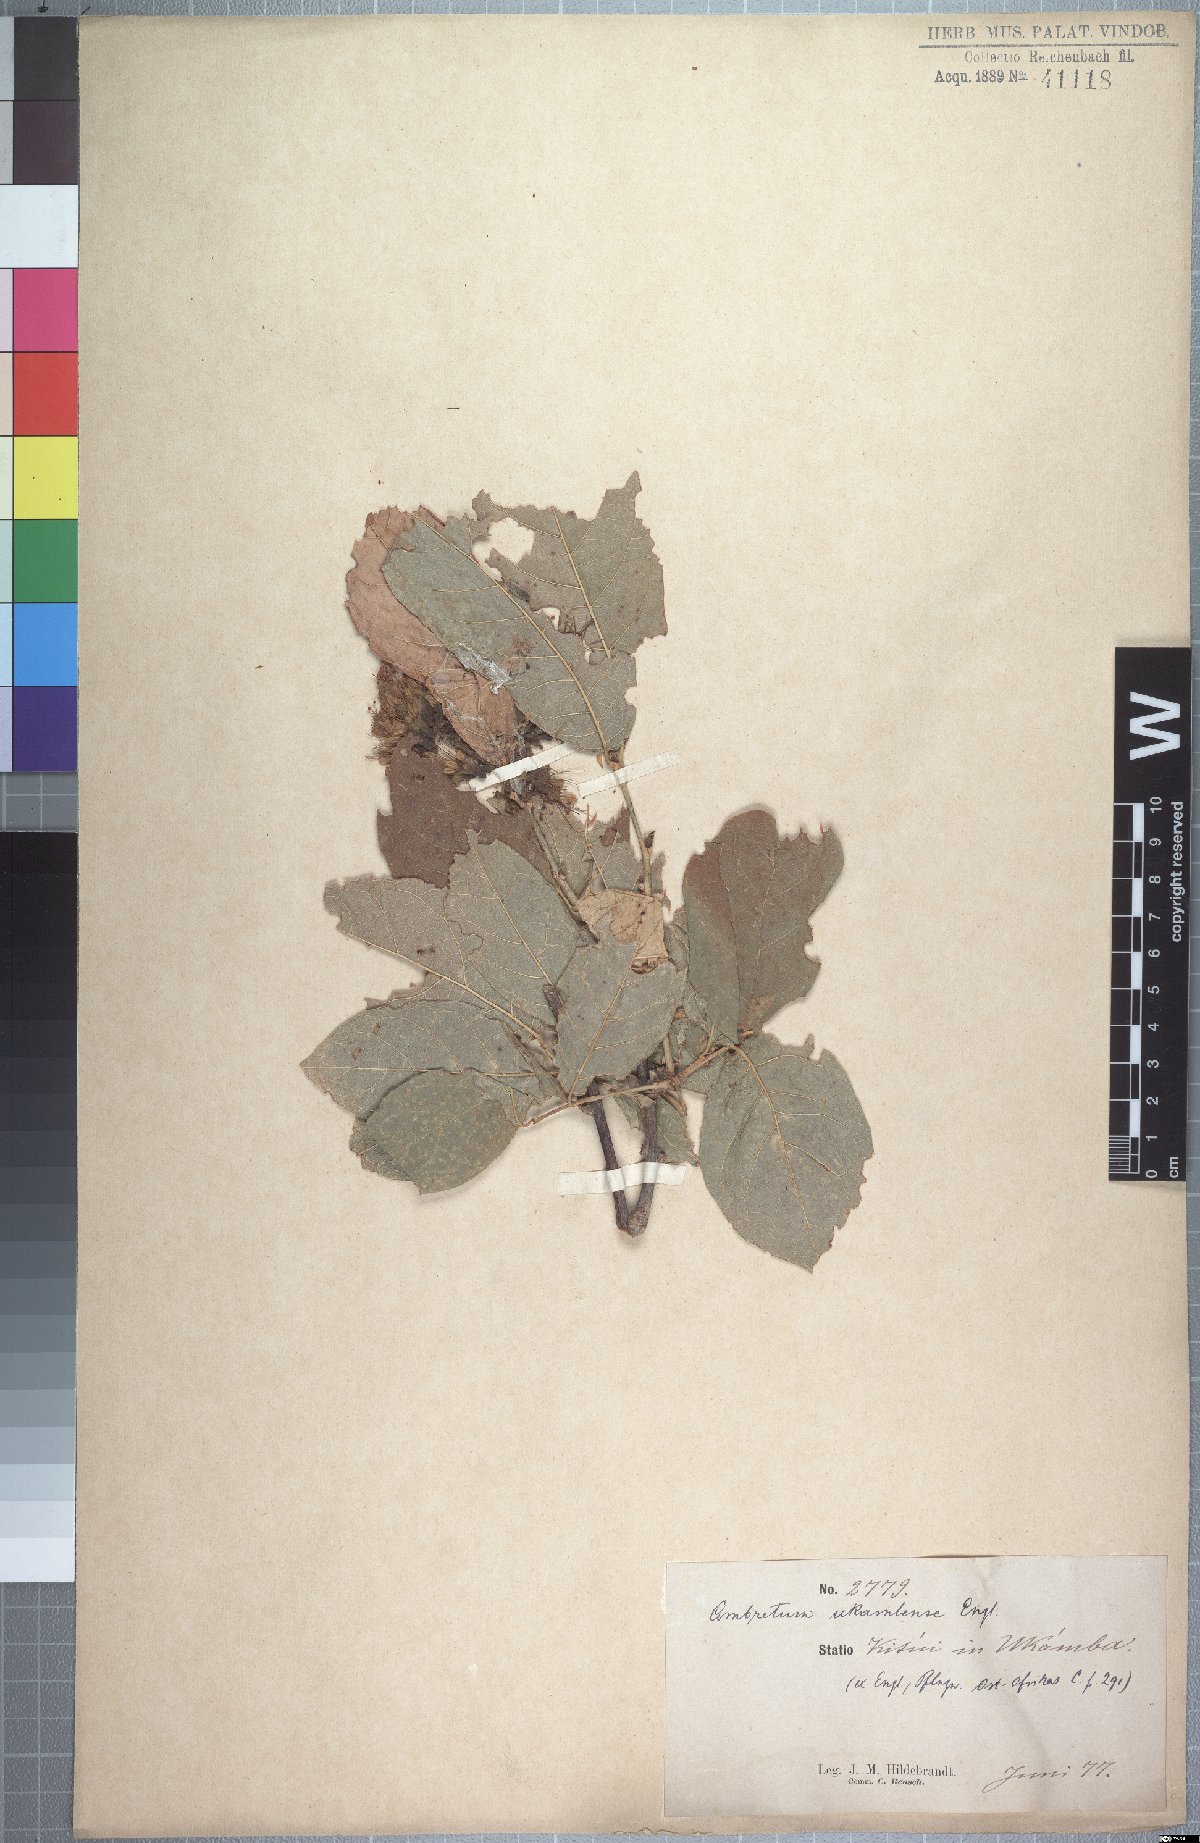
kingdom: Plantae
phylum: Tracheophyta
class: Magnoliopsida
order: Myrtales
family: Combretaceae
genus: Combretum
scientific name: Combretum mossambicense
